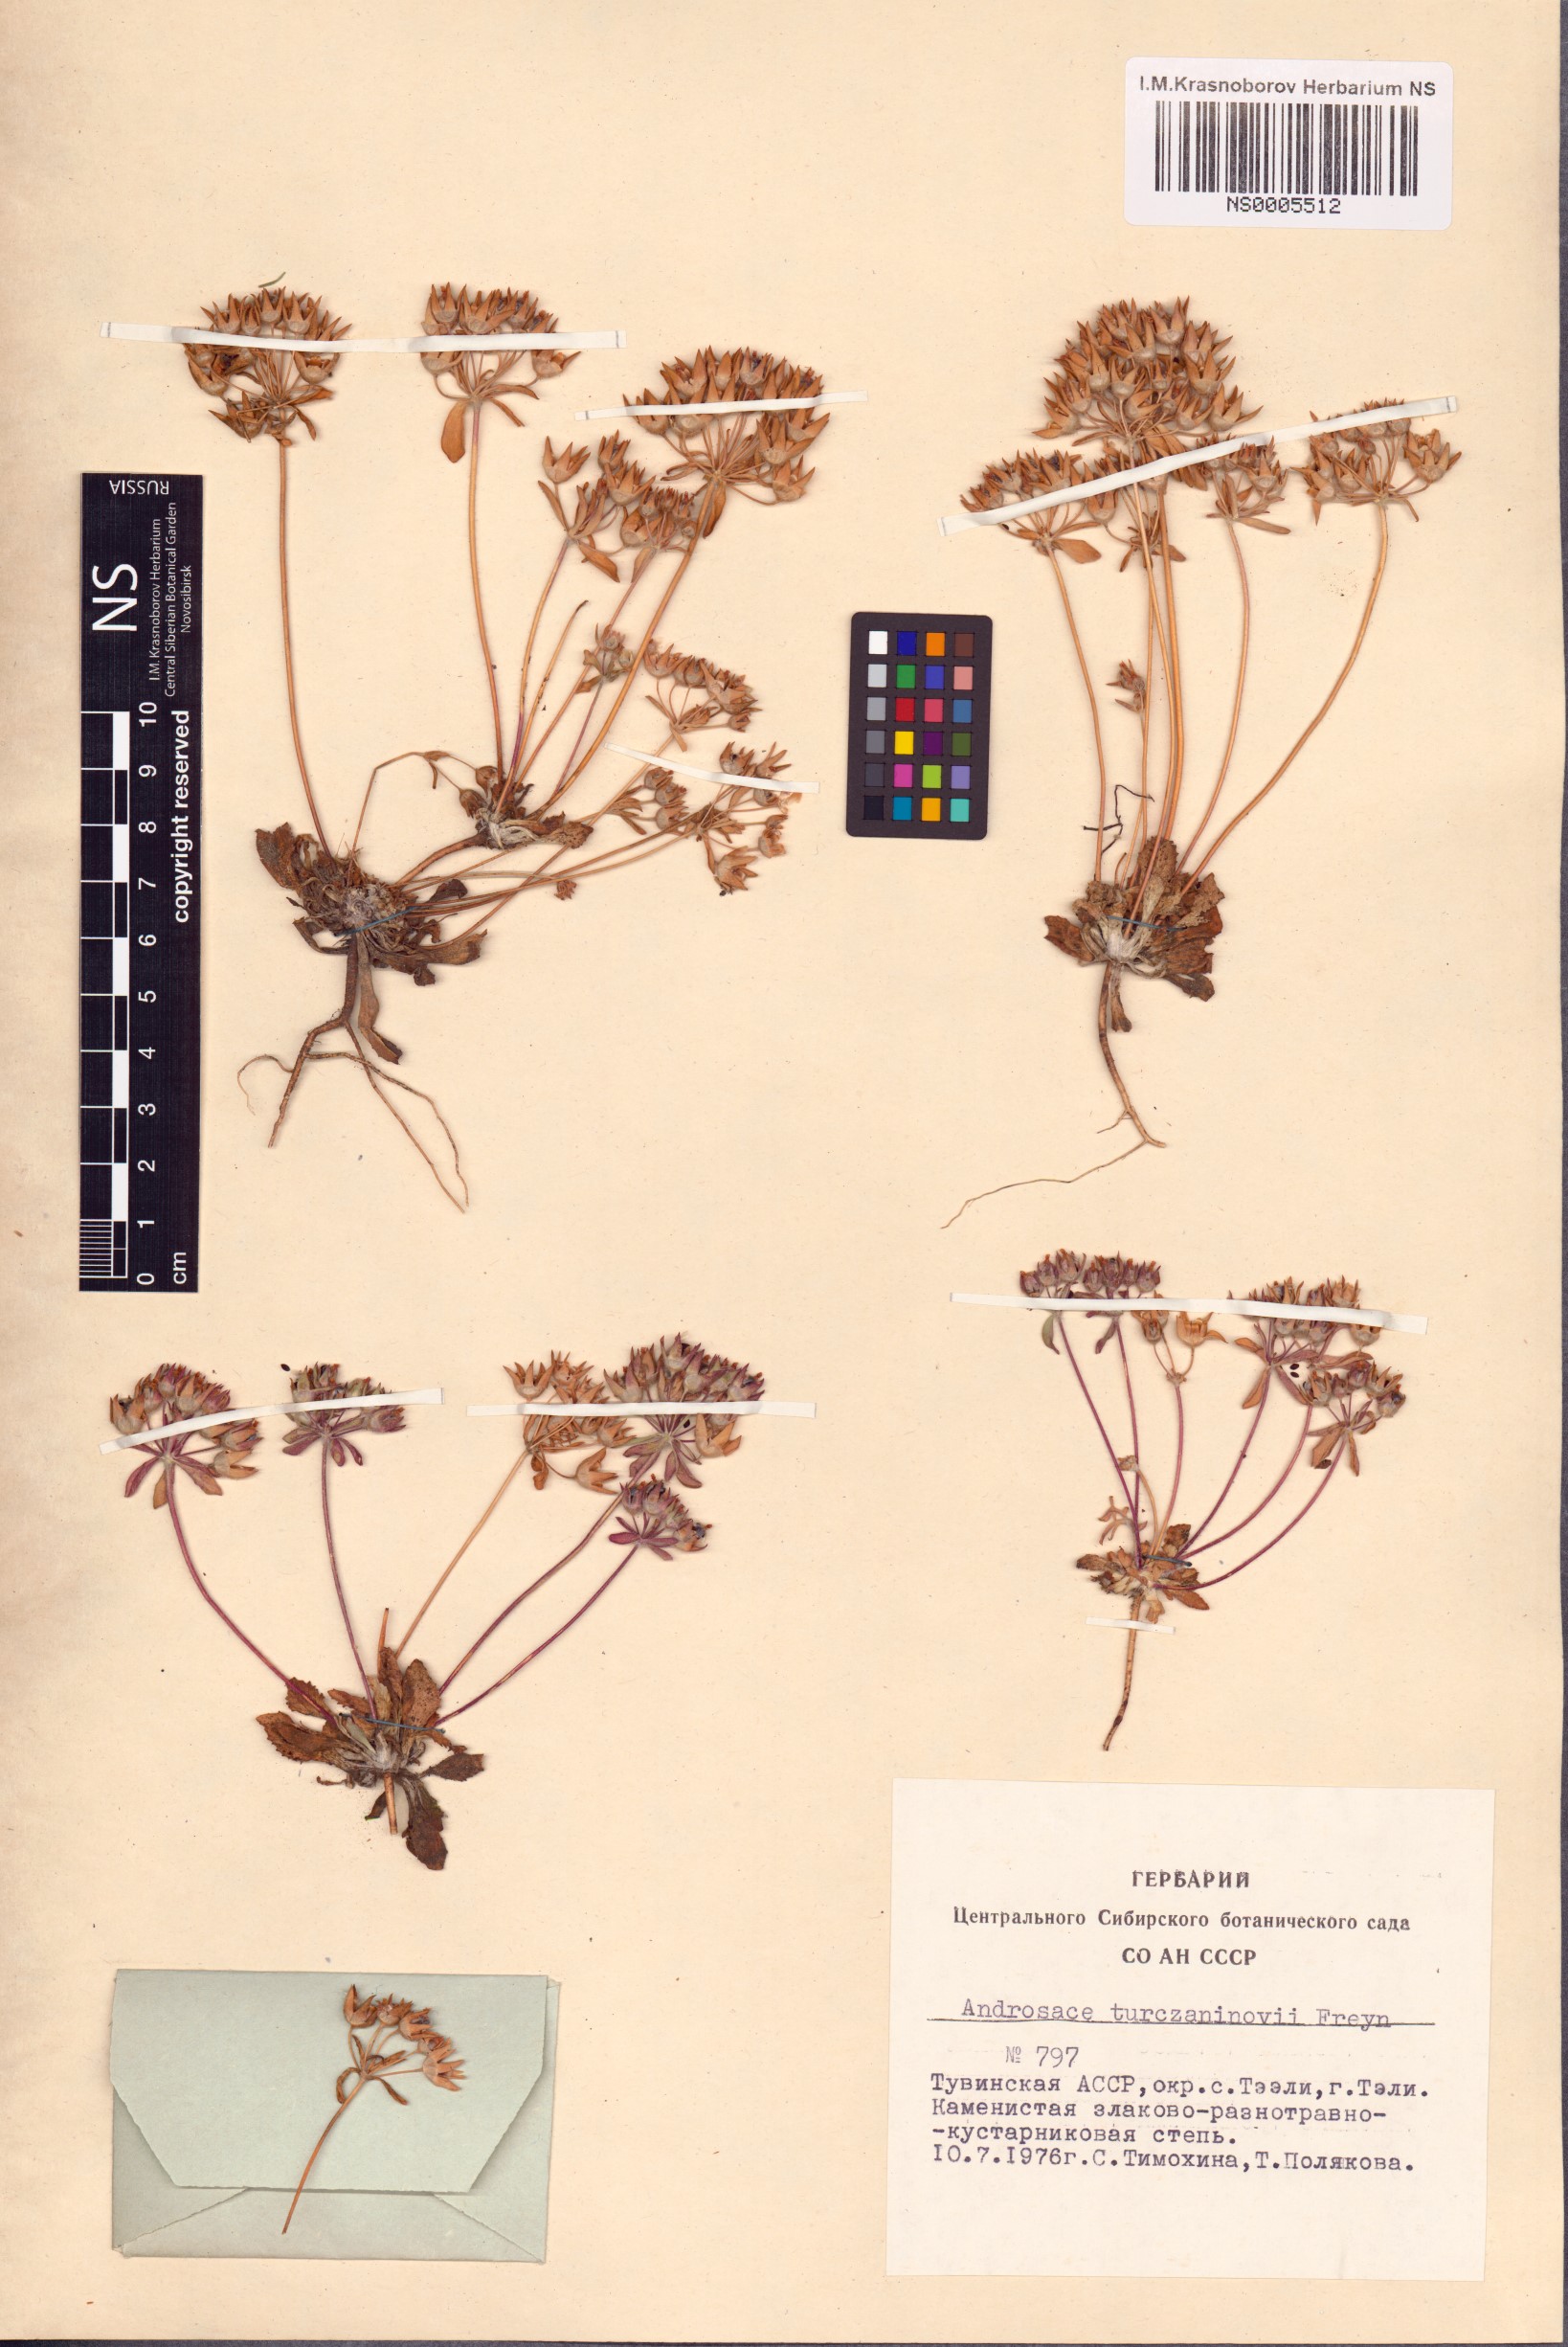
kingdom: Plantae
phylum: Tracheophyta
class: Magnoliopsida
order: Ericales
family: Primulaceae
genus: Androsace
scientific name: Androsace maxima
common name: Annual androsace
